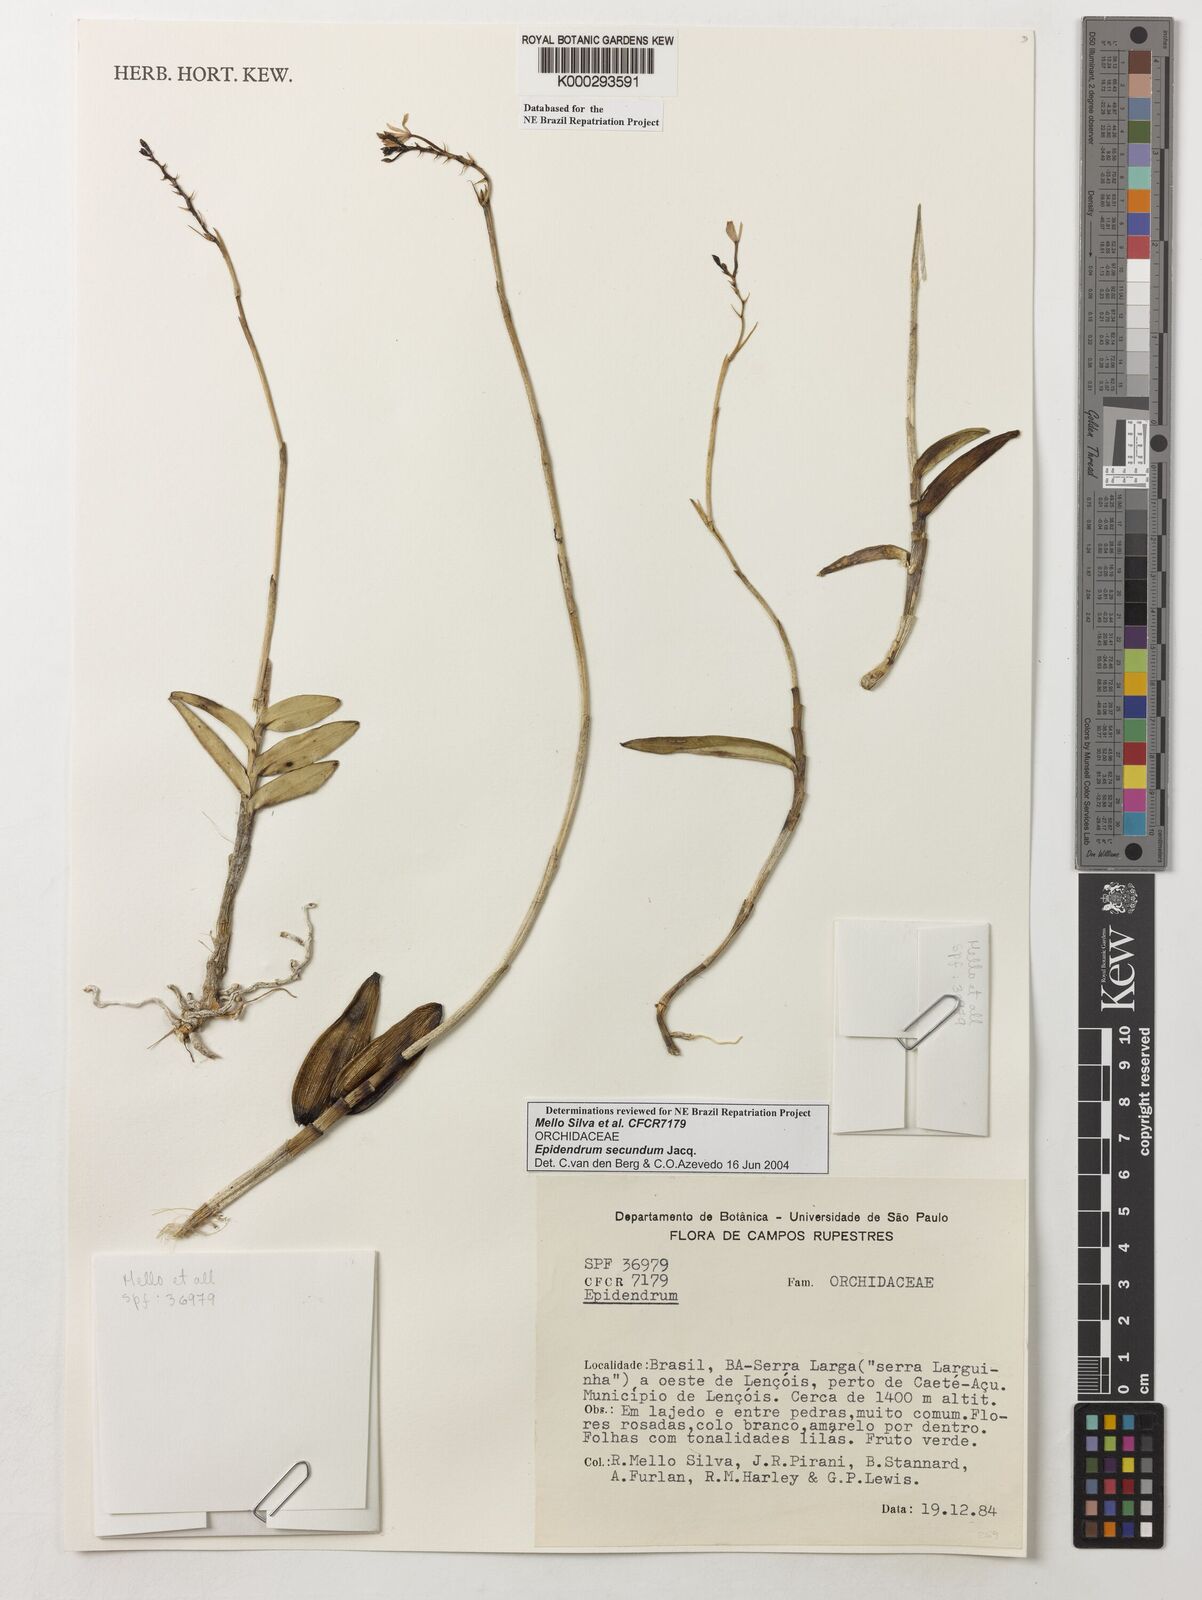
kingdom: Plantae
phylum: Tracheophyta
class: Liliopsida
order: Asparagales
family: Orchidaceae
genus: Epidendrum
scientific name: Epidendrum secundum
